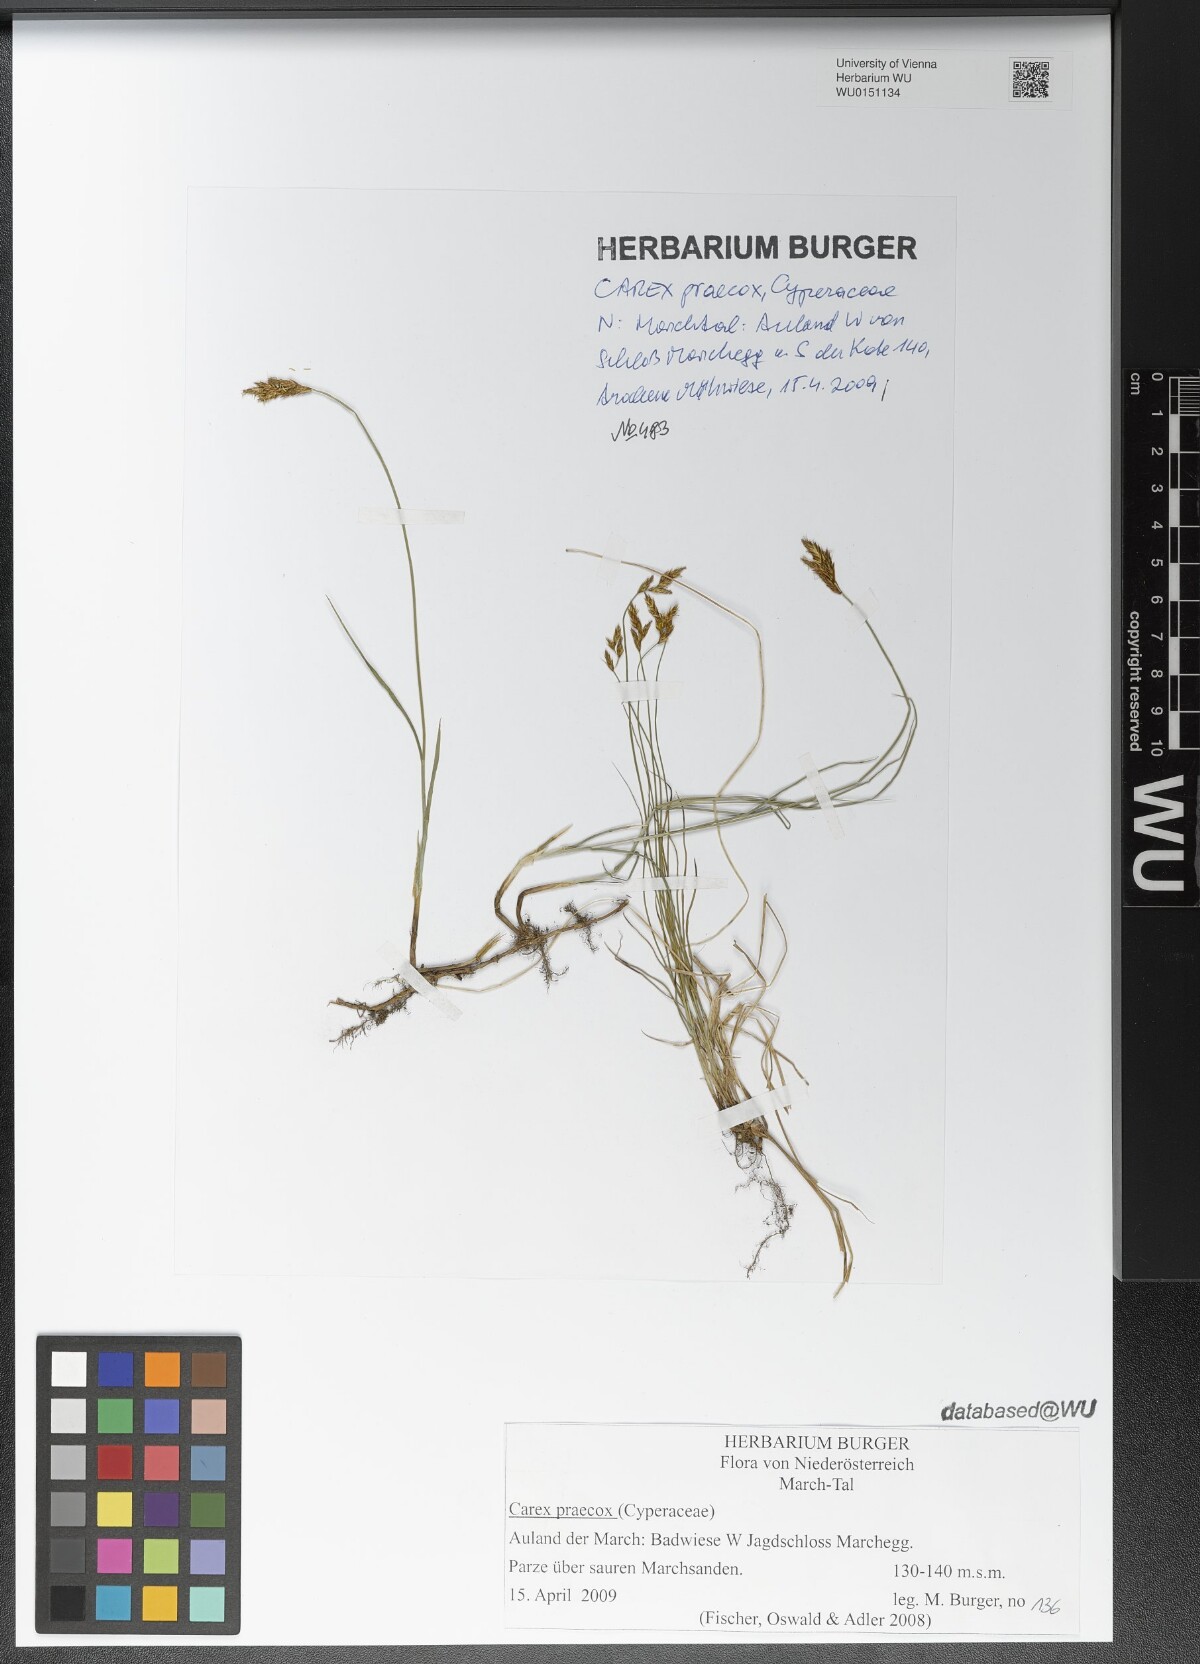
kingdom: Plantae
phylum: Tracheophyta
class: Liliopsida
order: Poales
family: Cyperaceae
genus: Carex
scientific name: Carex praecox
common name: Early sedge
